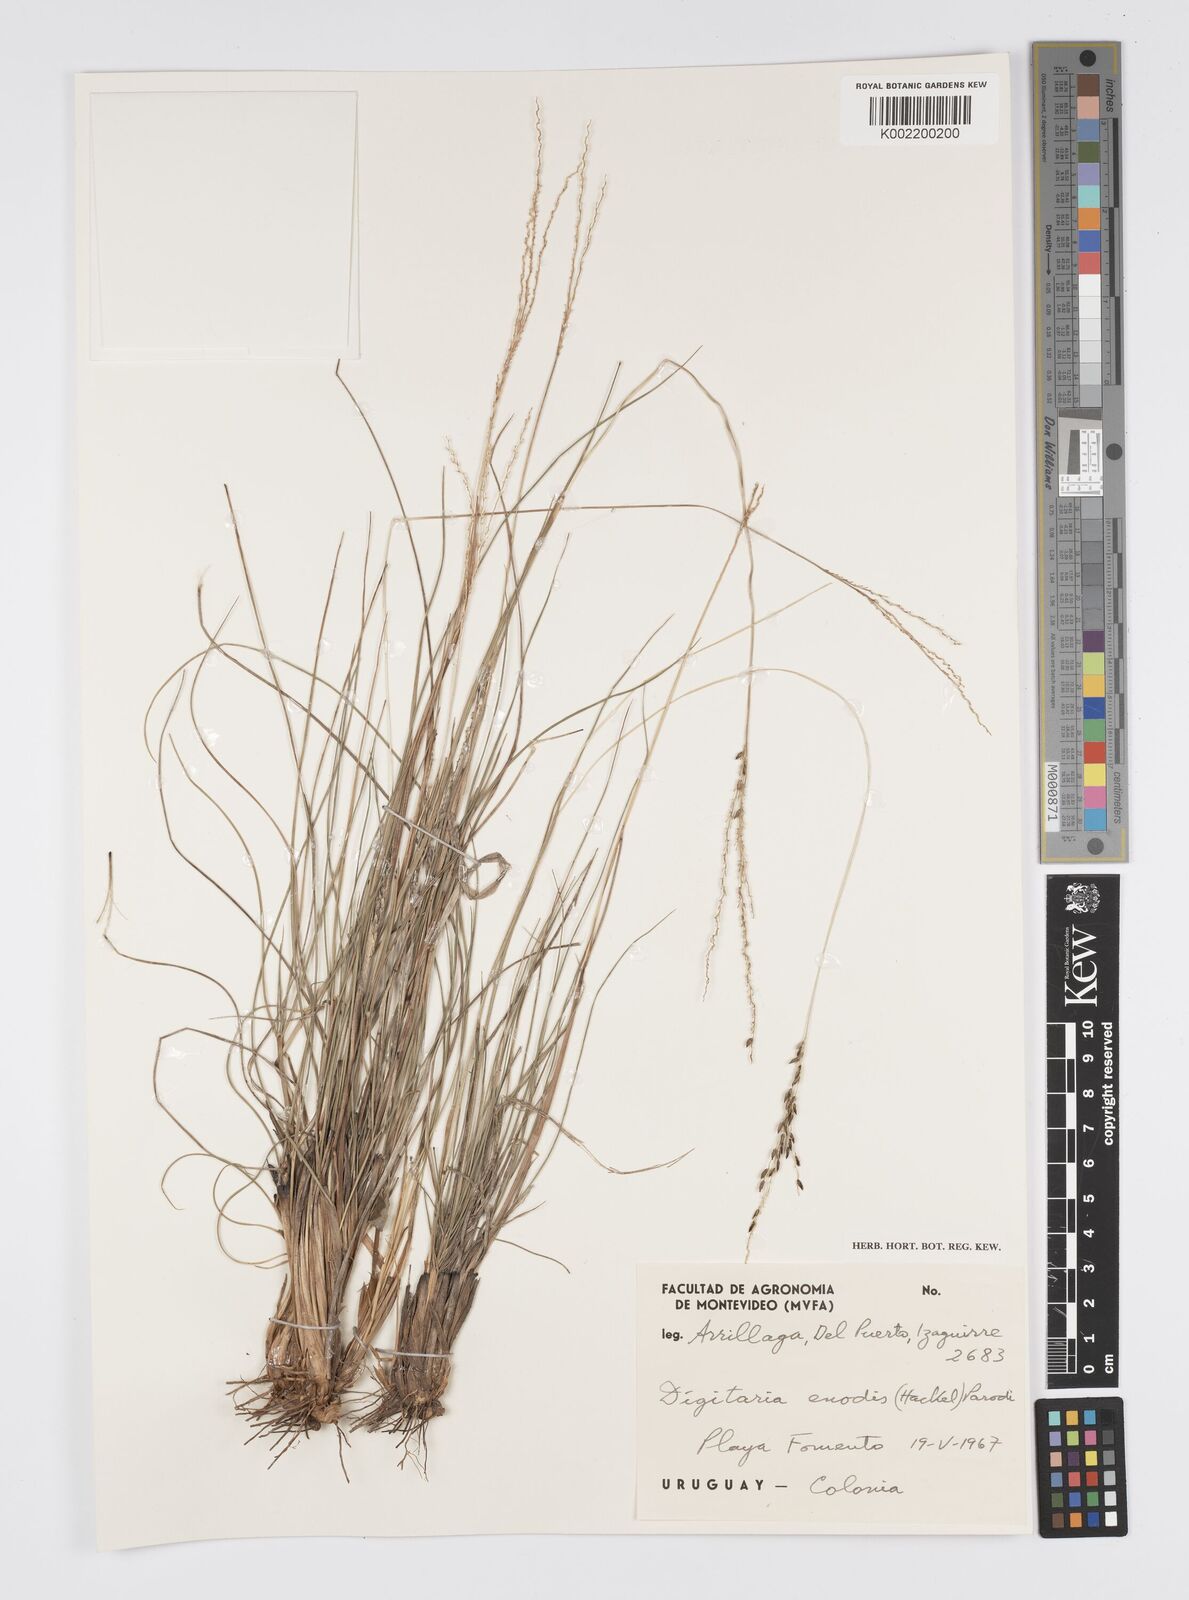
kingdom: Plantae
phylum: Tracheophyta
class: Liliopsida
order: Poales
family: Poaceae
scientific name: Poaceae
